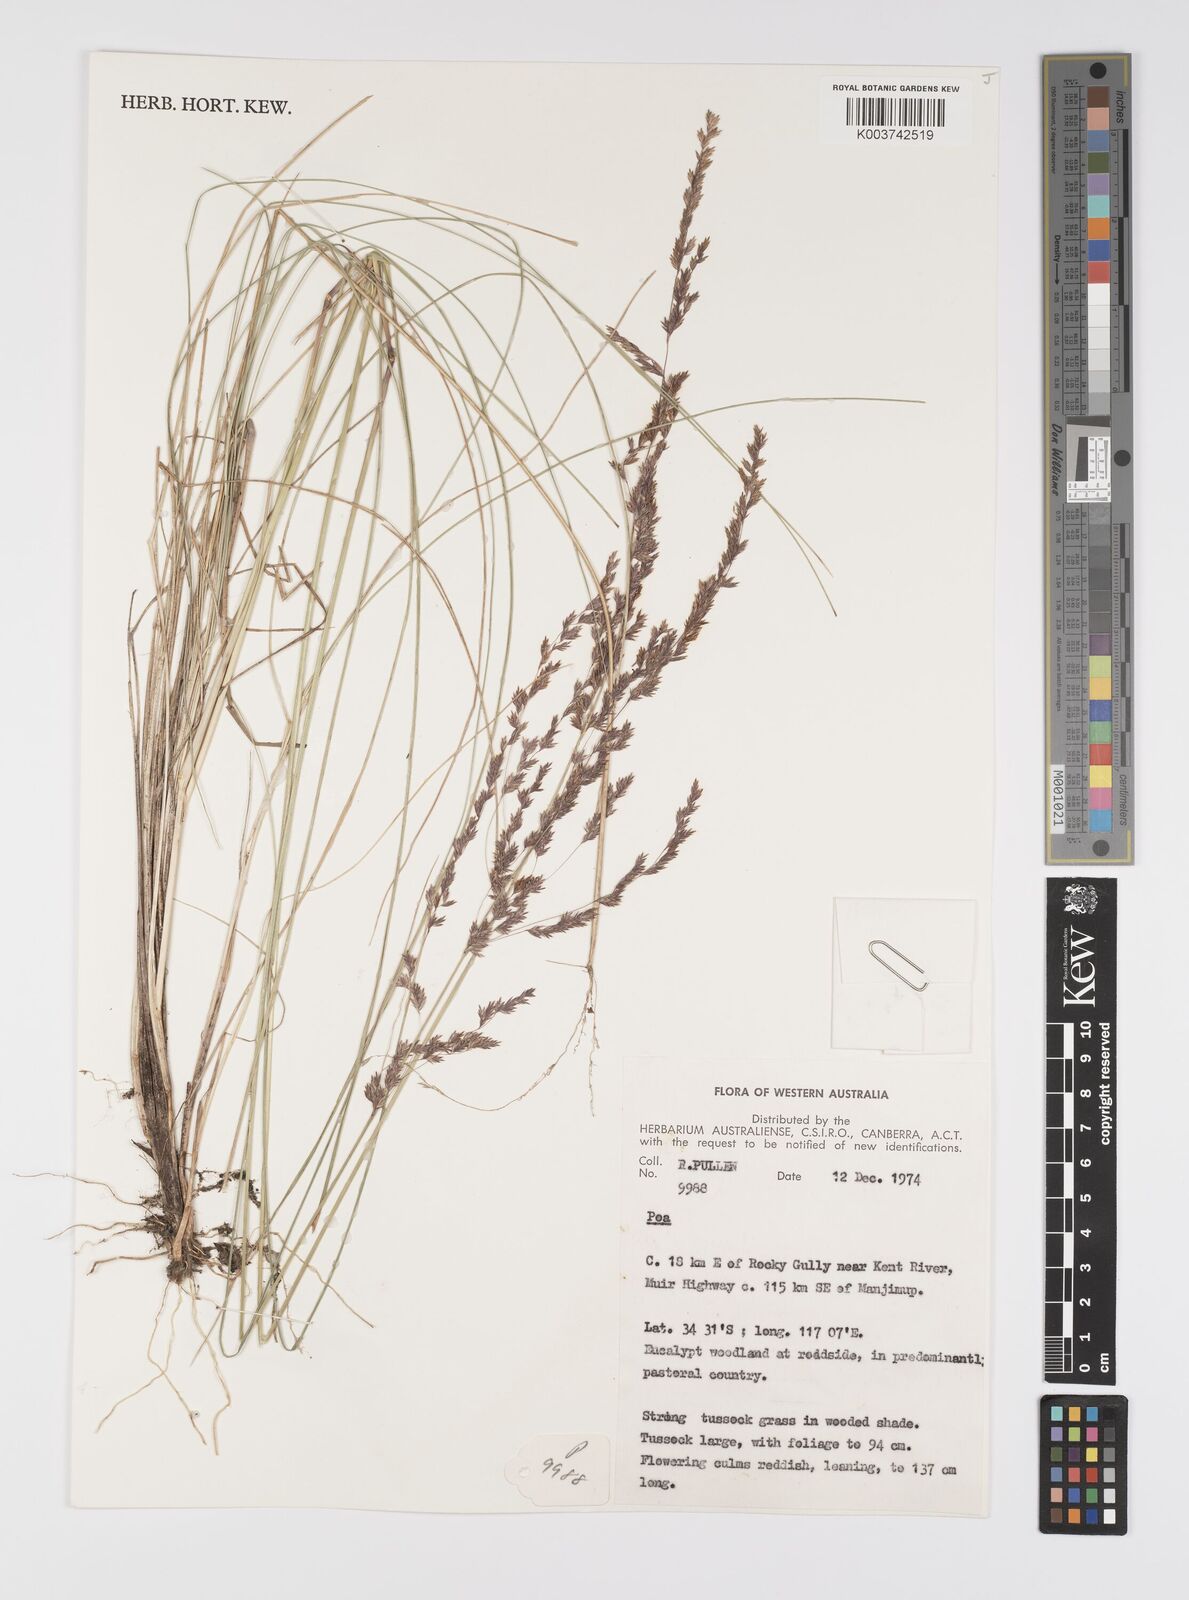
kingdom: Plantae
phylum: Tracheophyta
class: Liliopsida
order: Poales
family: Poaceae
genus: Poa
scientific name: Poa
